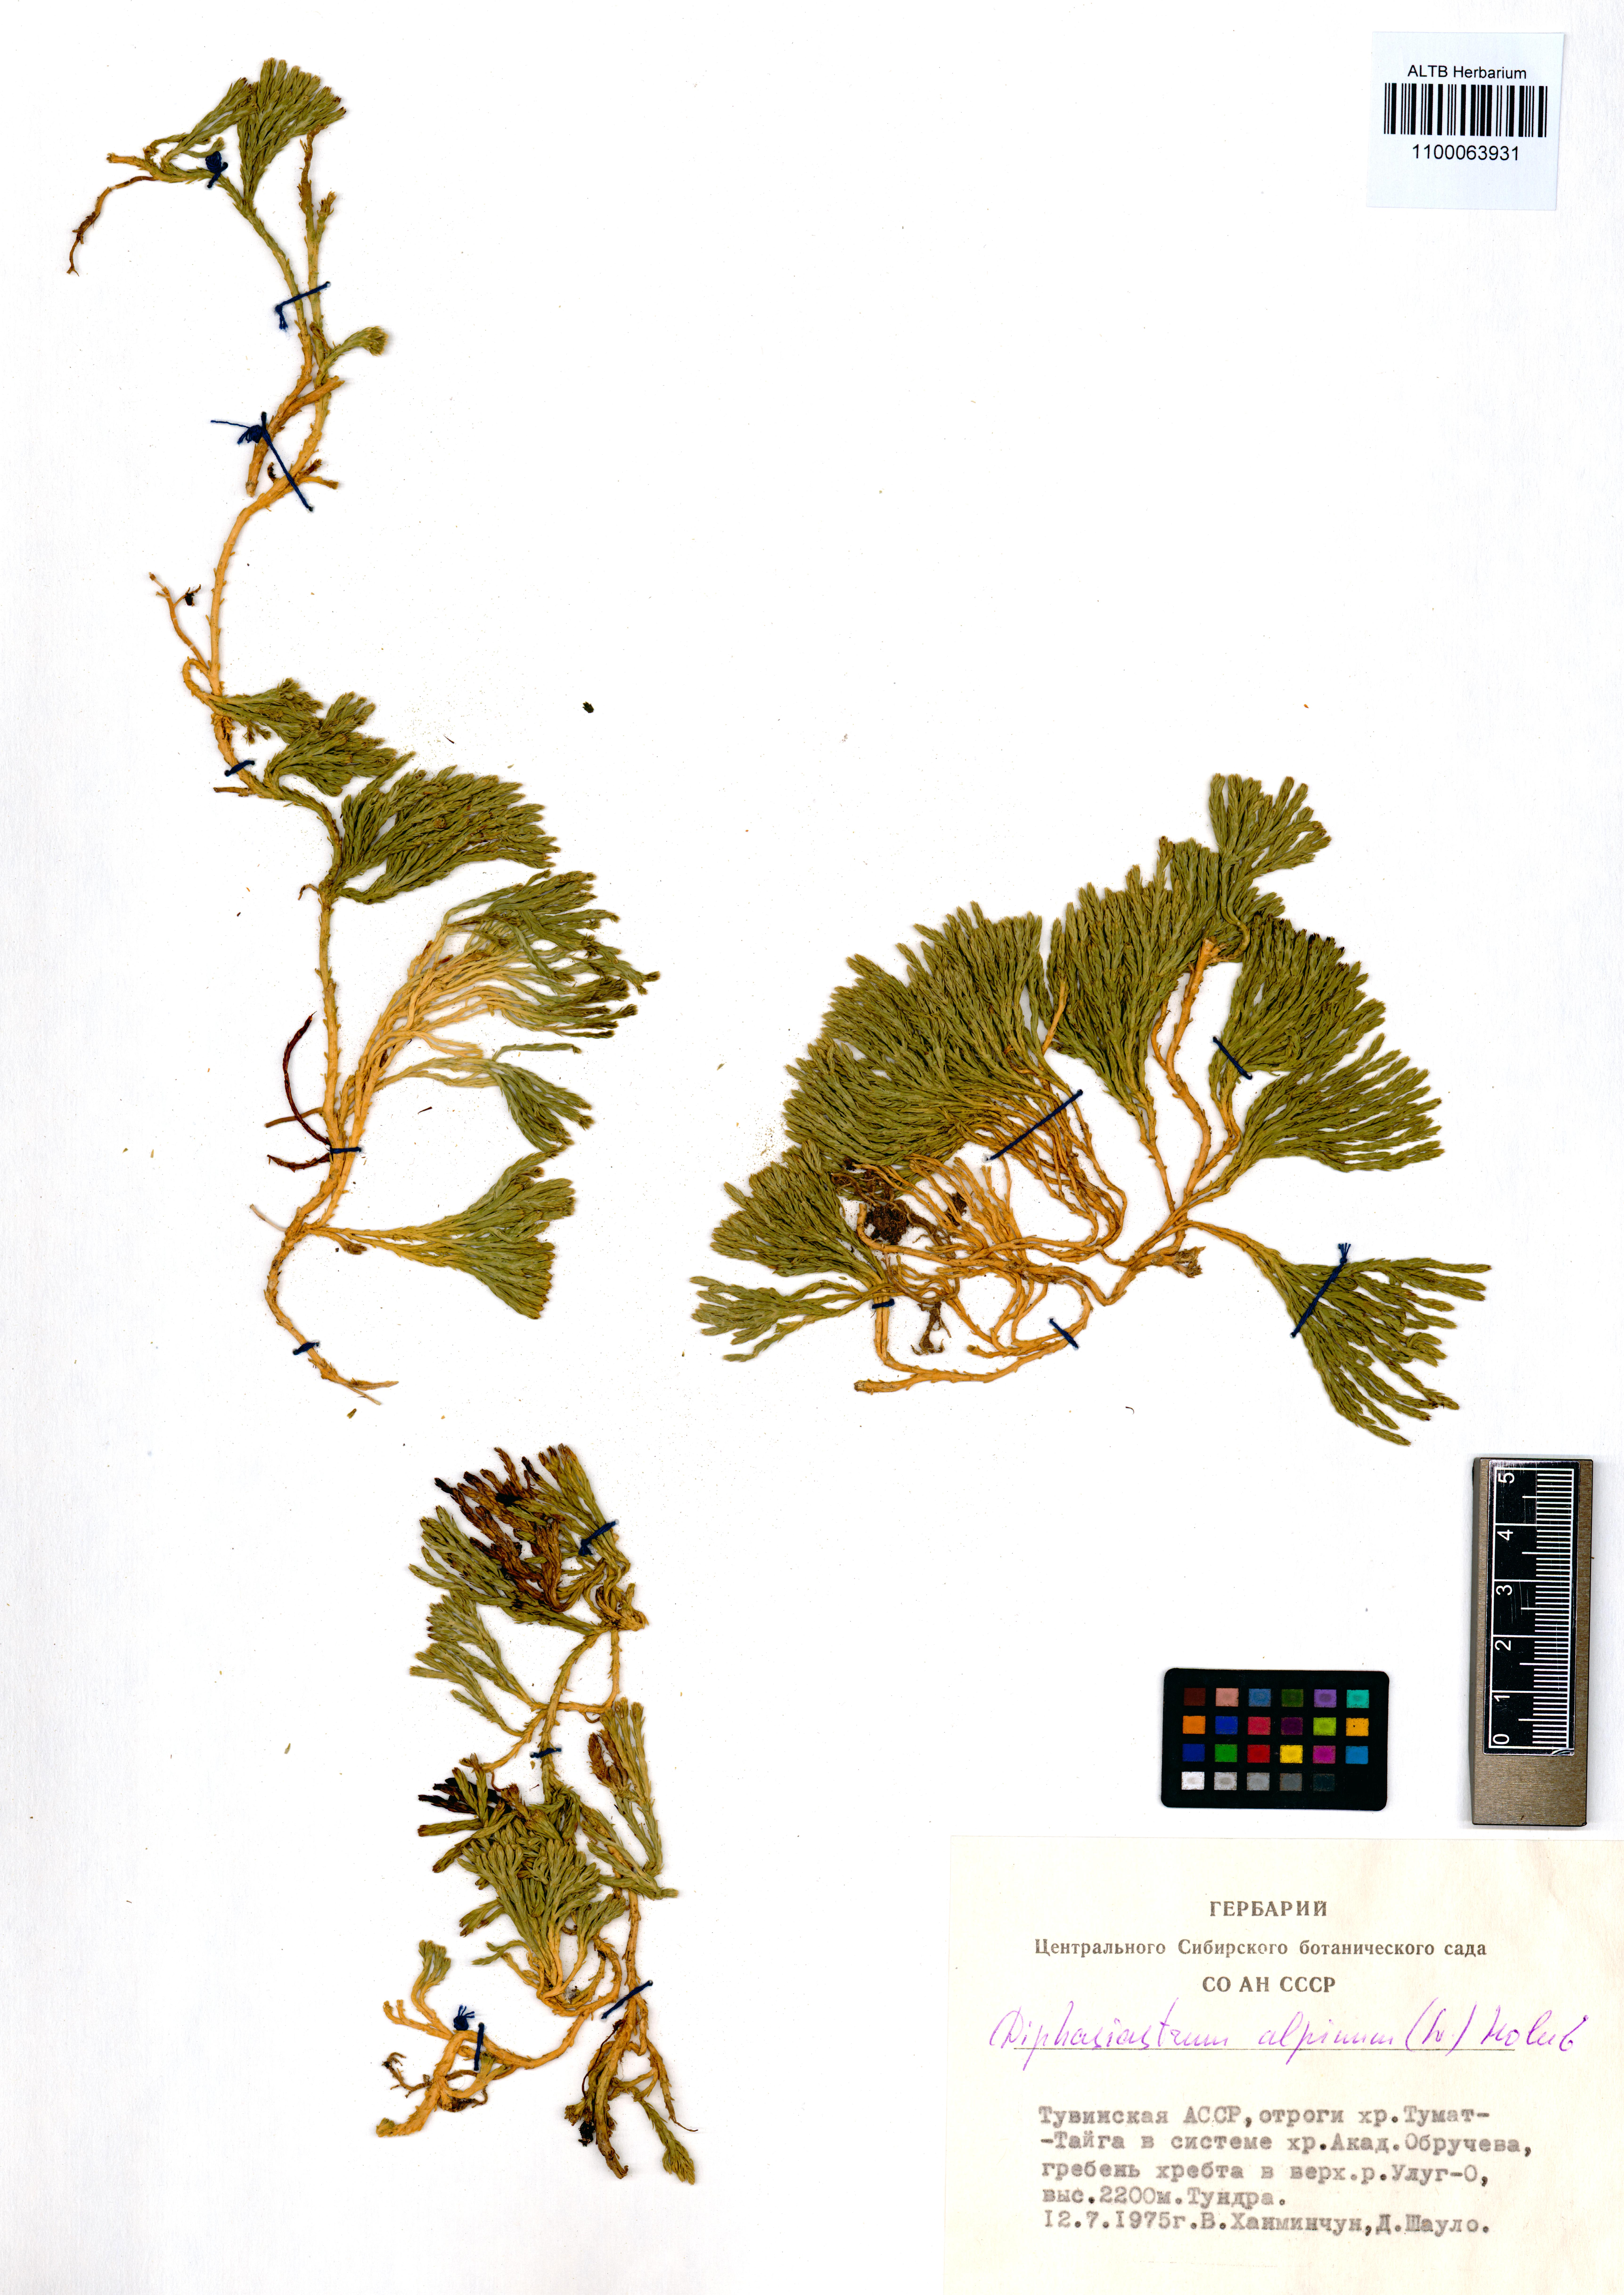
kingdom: Plantae
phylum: Tracheophyta
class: Lycopodiopsida
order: Lycopodiales
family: Lycopodiaceae
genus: Diphasiastrum
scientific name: Diphasiastrum alpinum
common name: Alpine clubmoss
